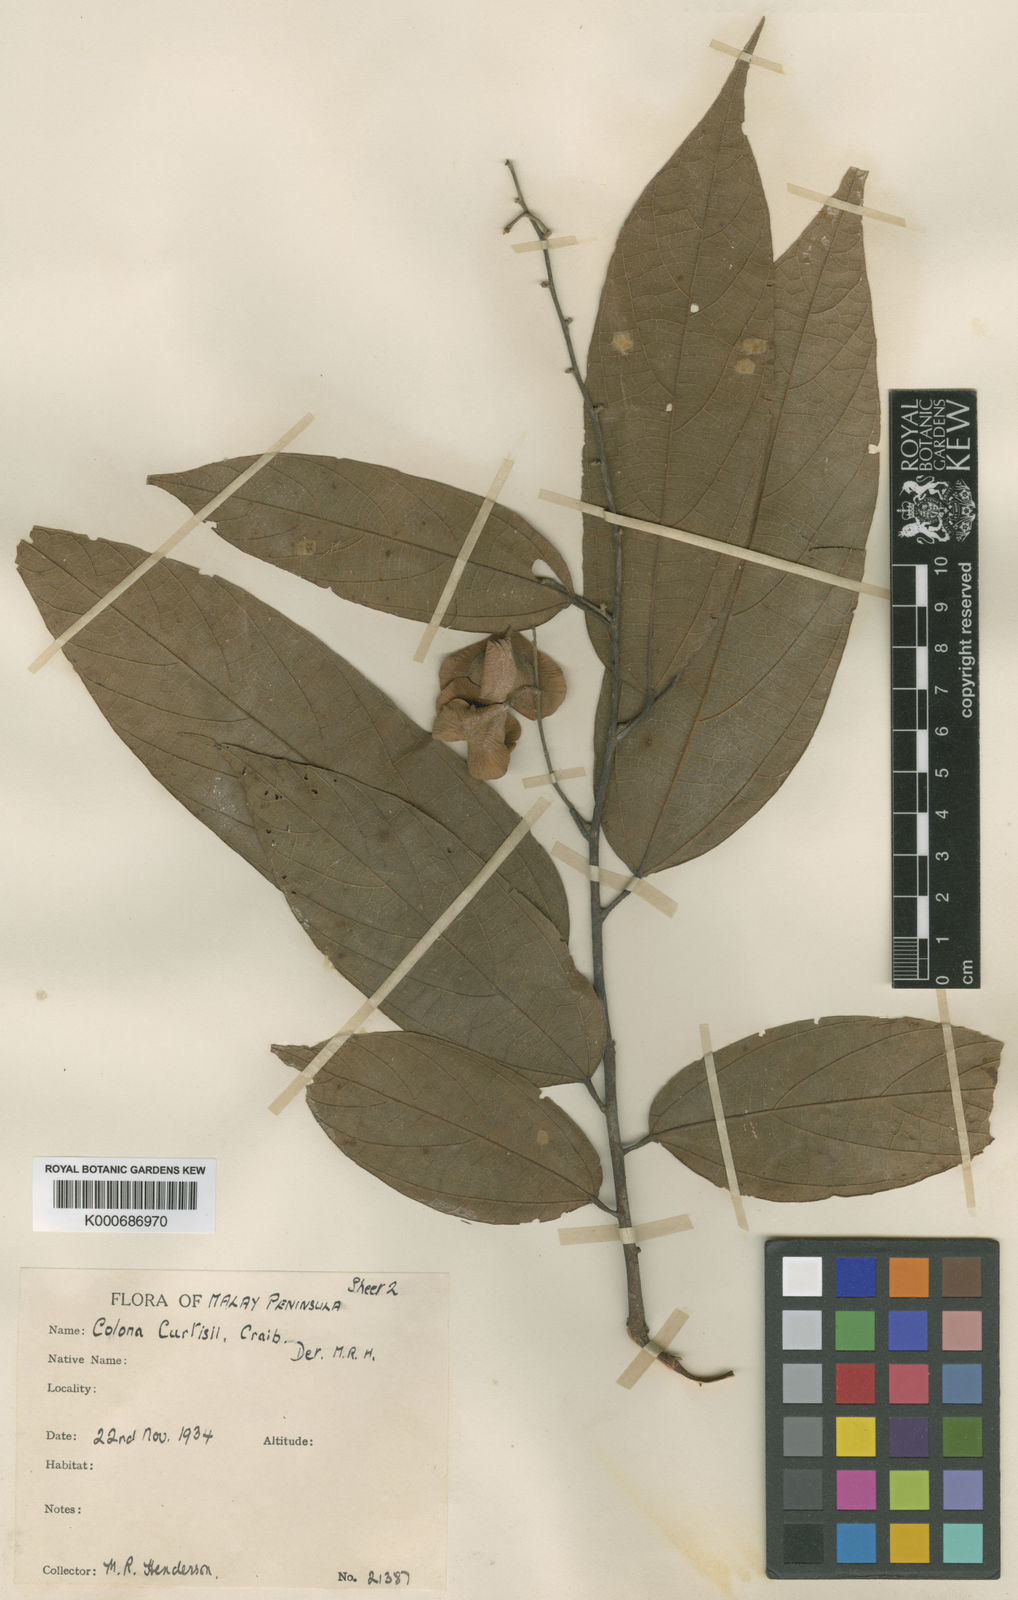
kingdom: Plantae
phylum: Tracheophyta
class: Magnoliopsida
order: Malvales
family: Malvaceae
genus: Colona
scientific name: Colona merguensis
